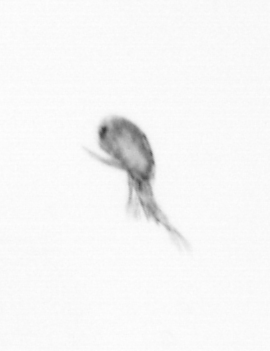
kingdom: Animalia
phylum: Arthropoda
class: Maxillopoda
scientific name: Maxillopoda
